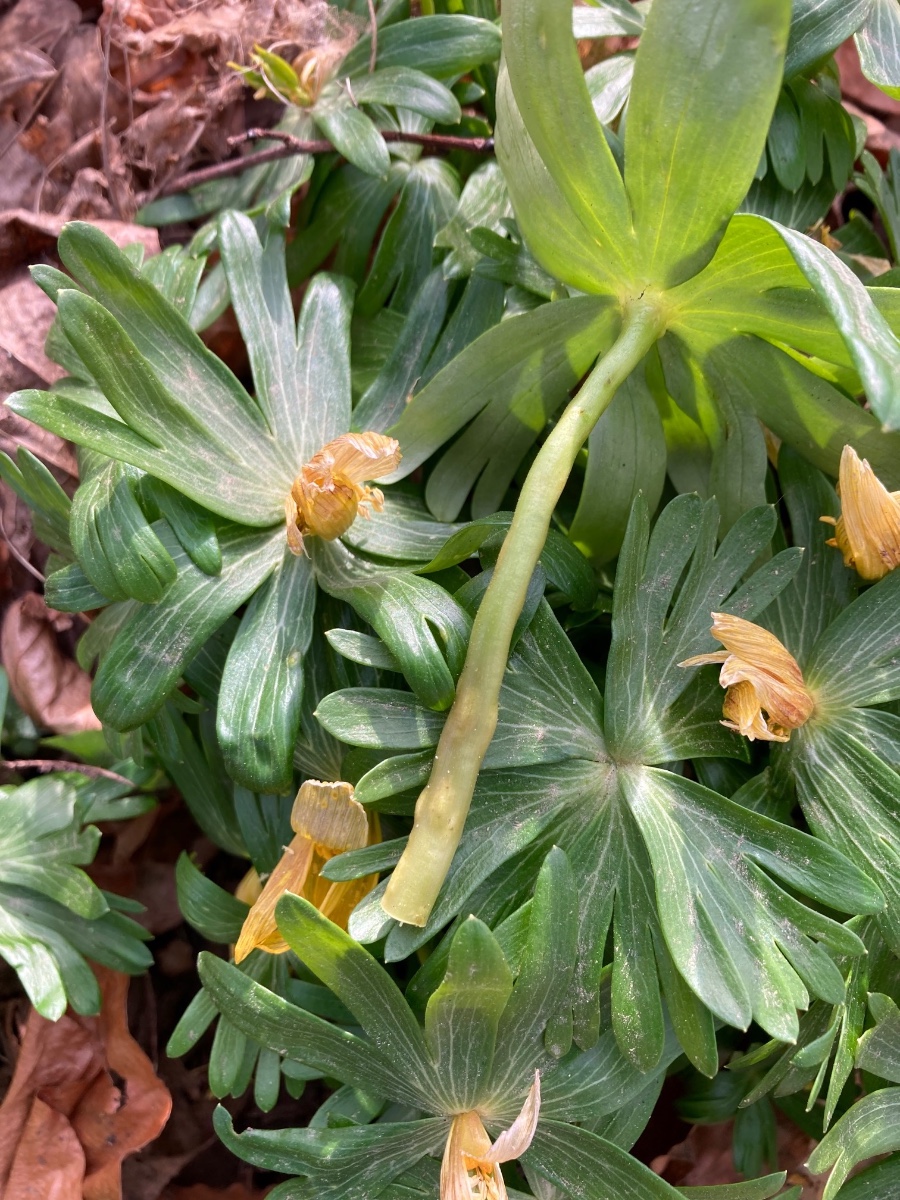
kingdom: Fungi
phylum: Basidiomycota
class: Ustilaginomycetes
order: Urocystidales
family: Urocystidaceae
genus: Urocystis
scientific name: Urocystis eranthidis
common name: erantis-brand
